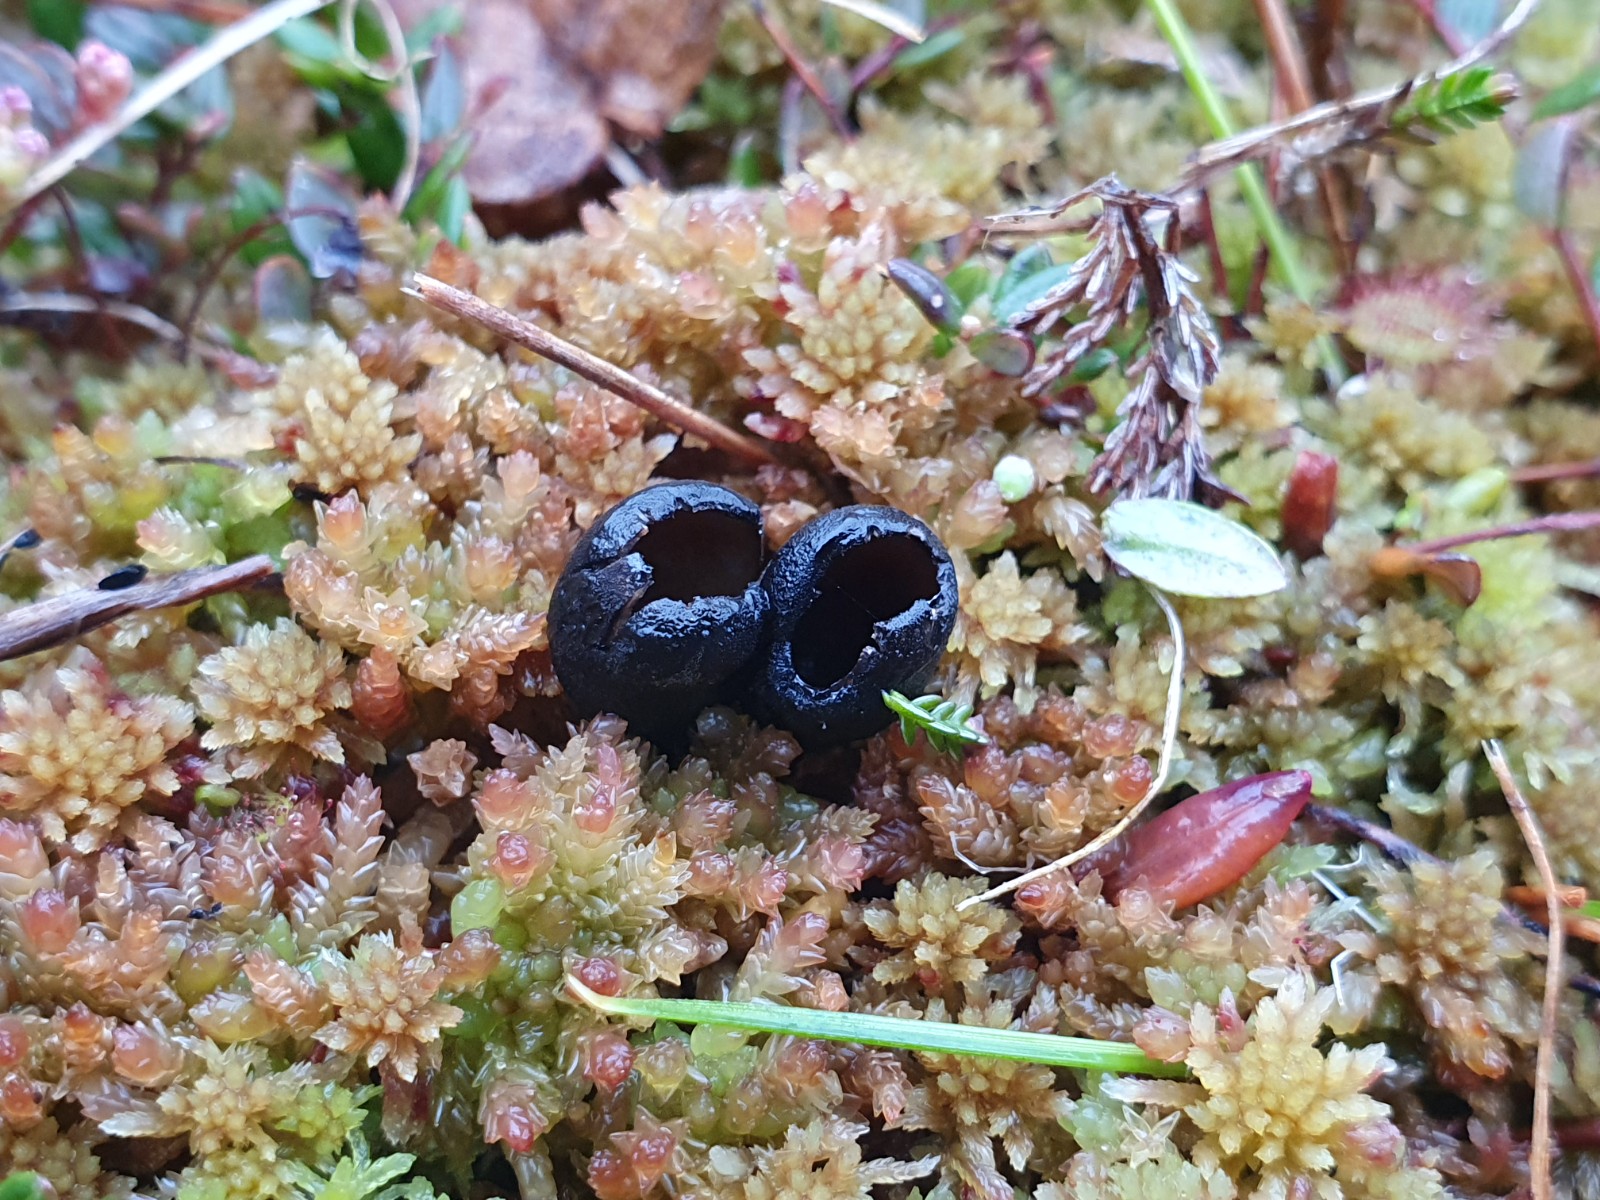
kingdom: Fungi
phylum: Ascomycota
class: Pezizomycetes
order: Pezizales
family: Sarcosomataceae
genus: Pseudoplectania
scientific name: Pseudoplectania episphagnum
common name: tørvemos-sortbæger
